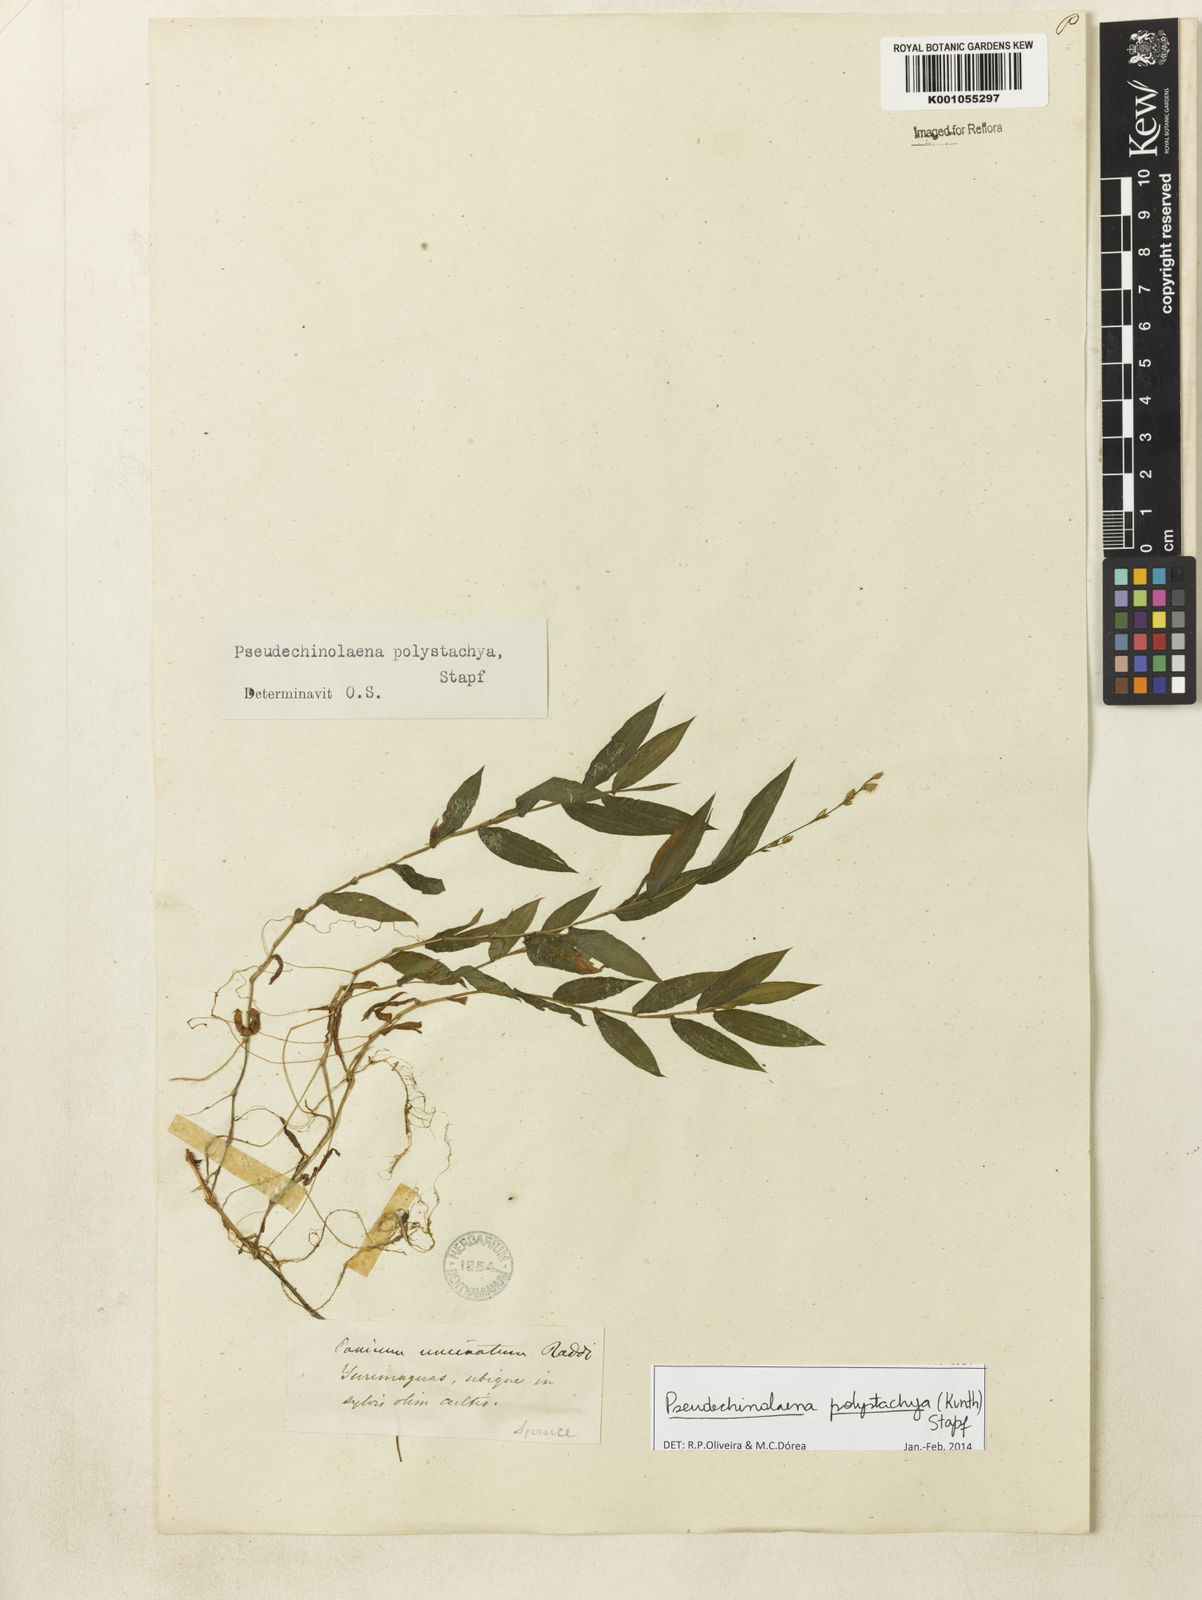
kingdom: Plantae
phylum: Tracheophyta
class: Liliopsida
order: Poales
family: Poaceae
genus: Pseudechinolaena
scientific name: Pseudechinolaena polystachya
